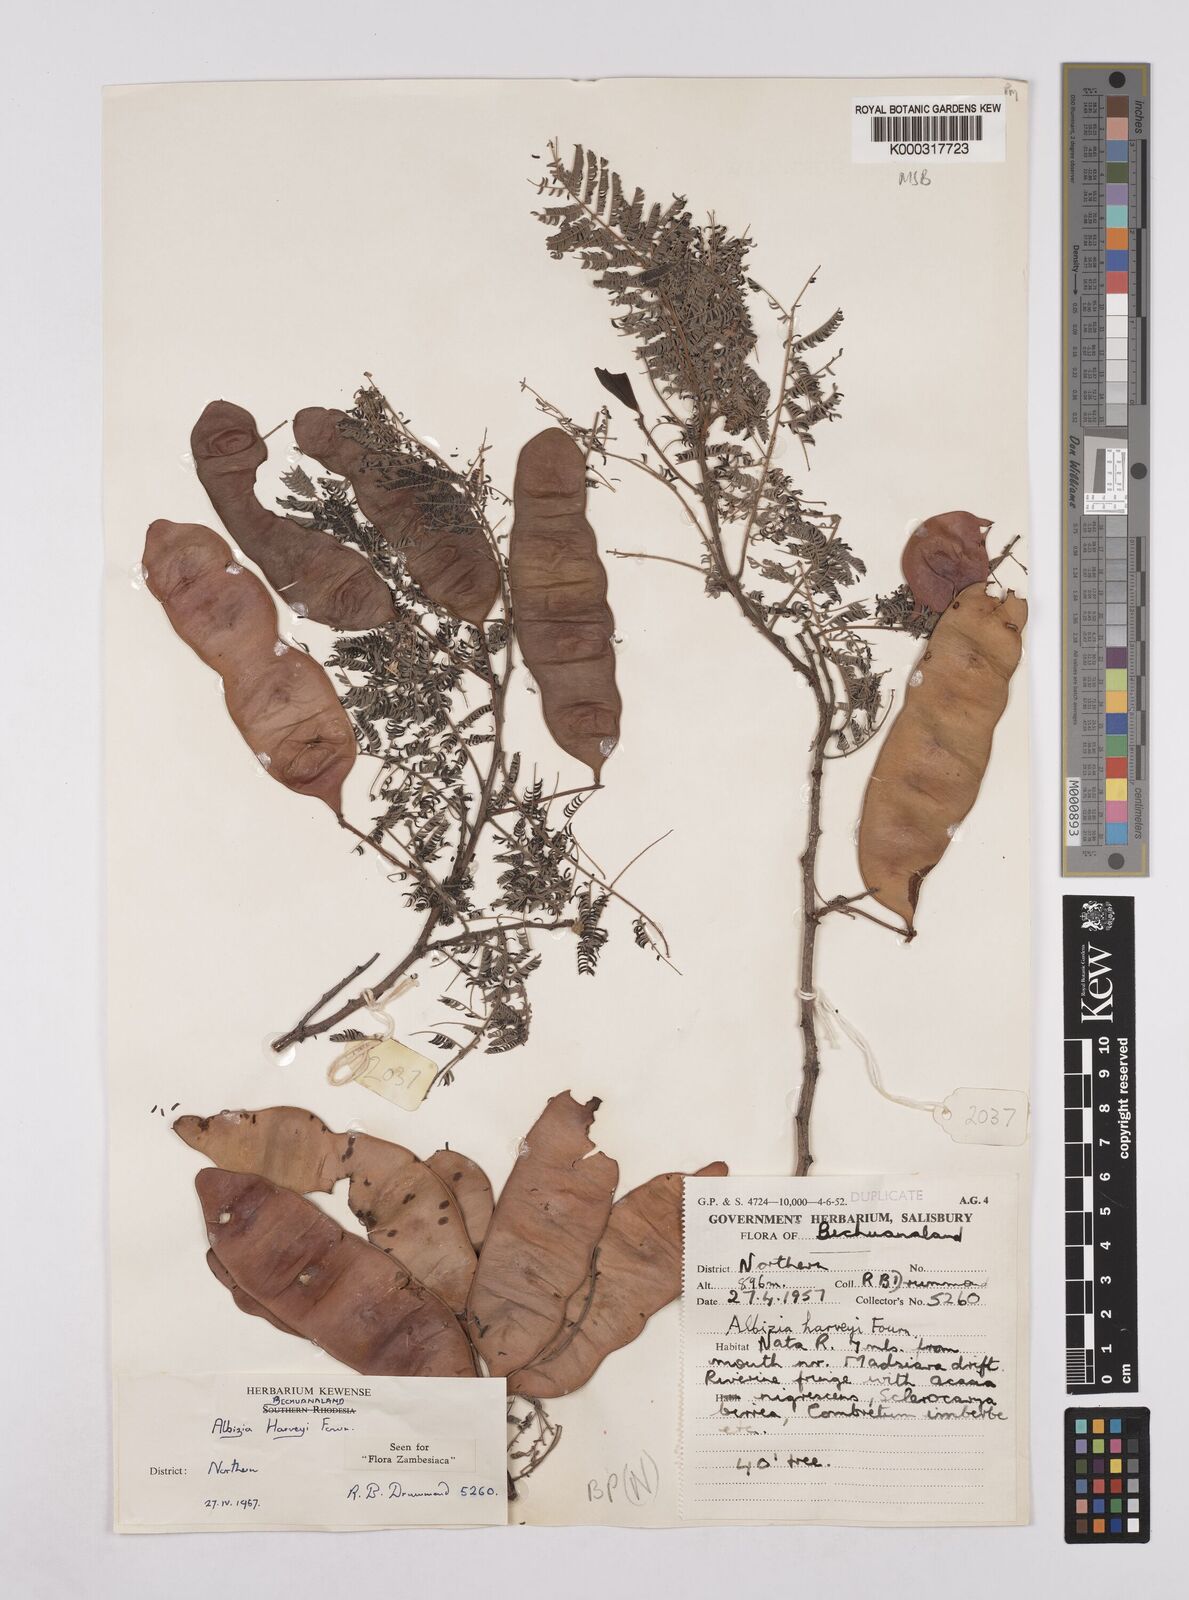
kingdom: Plantae
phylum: Tracheophyta
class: Magnoliopsida
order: Fabales
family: Fabaceae
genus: Albizia
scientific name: Albizia harveyi
